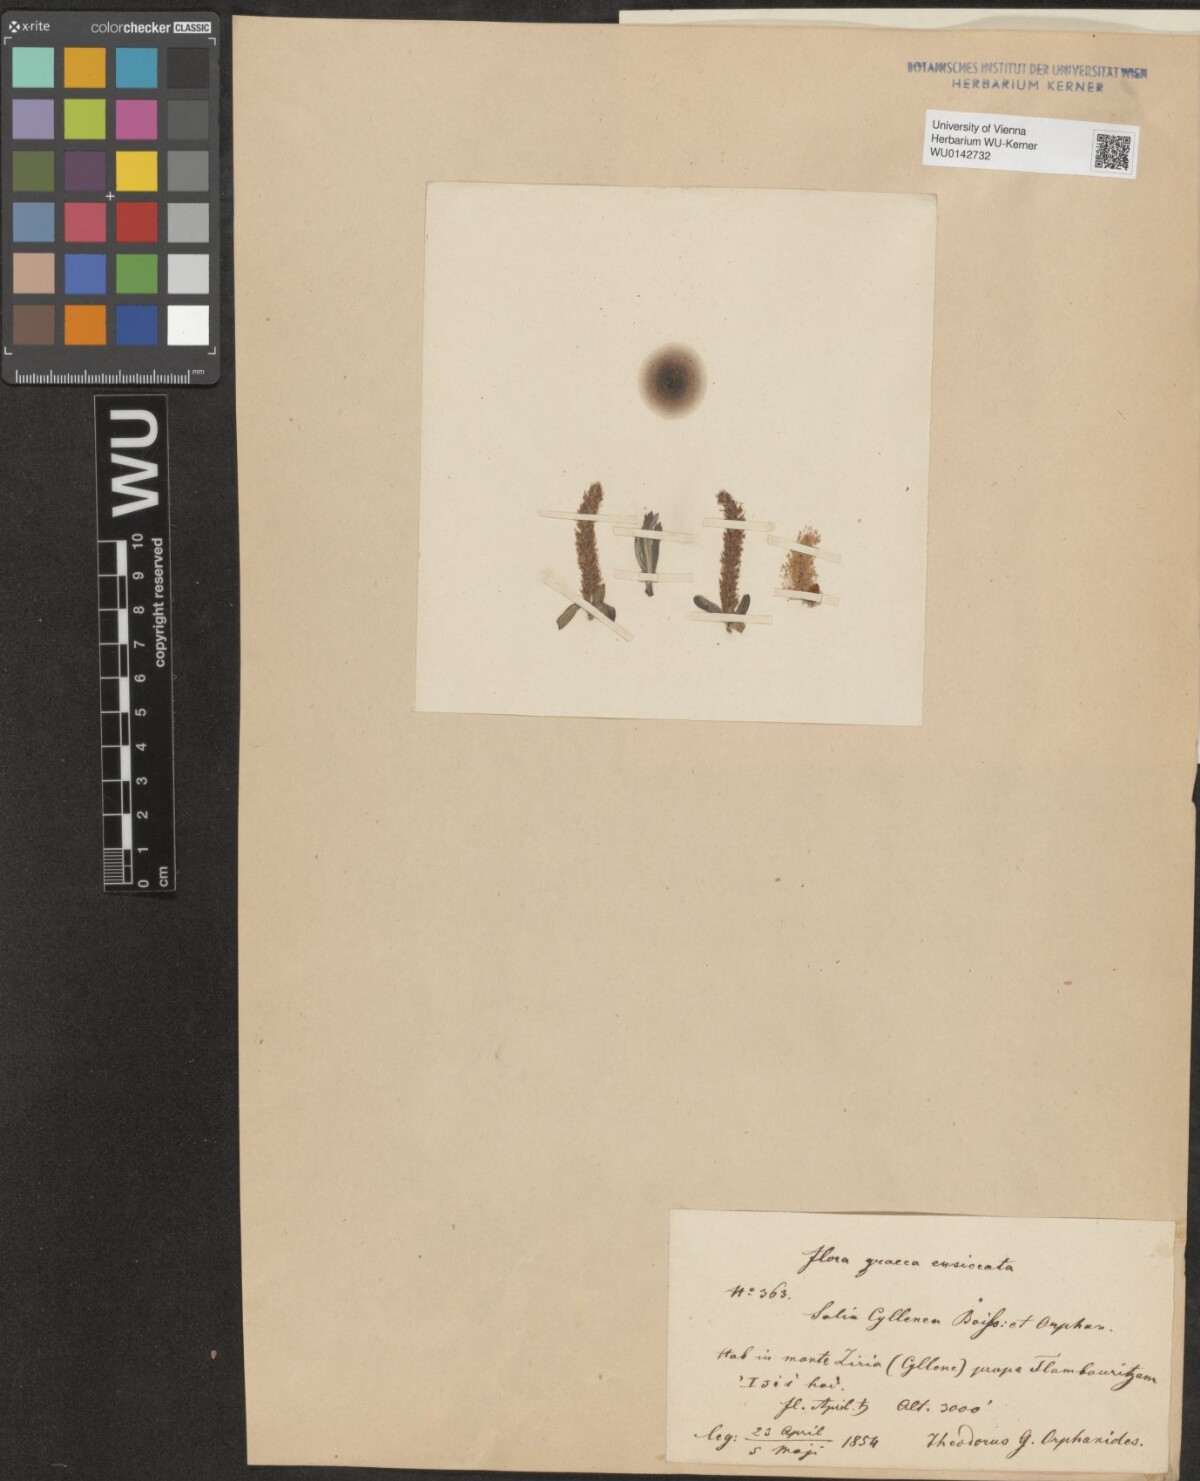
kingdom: Plantae
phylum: Tracheophyta
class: Magnoliopsida
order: Malpighiales
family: Salicaceae
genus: Salix
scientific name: Salix eleagnos
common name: Elaeagnus willow
